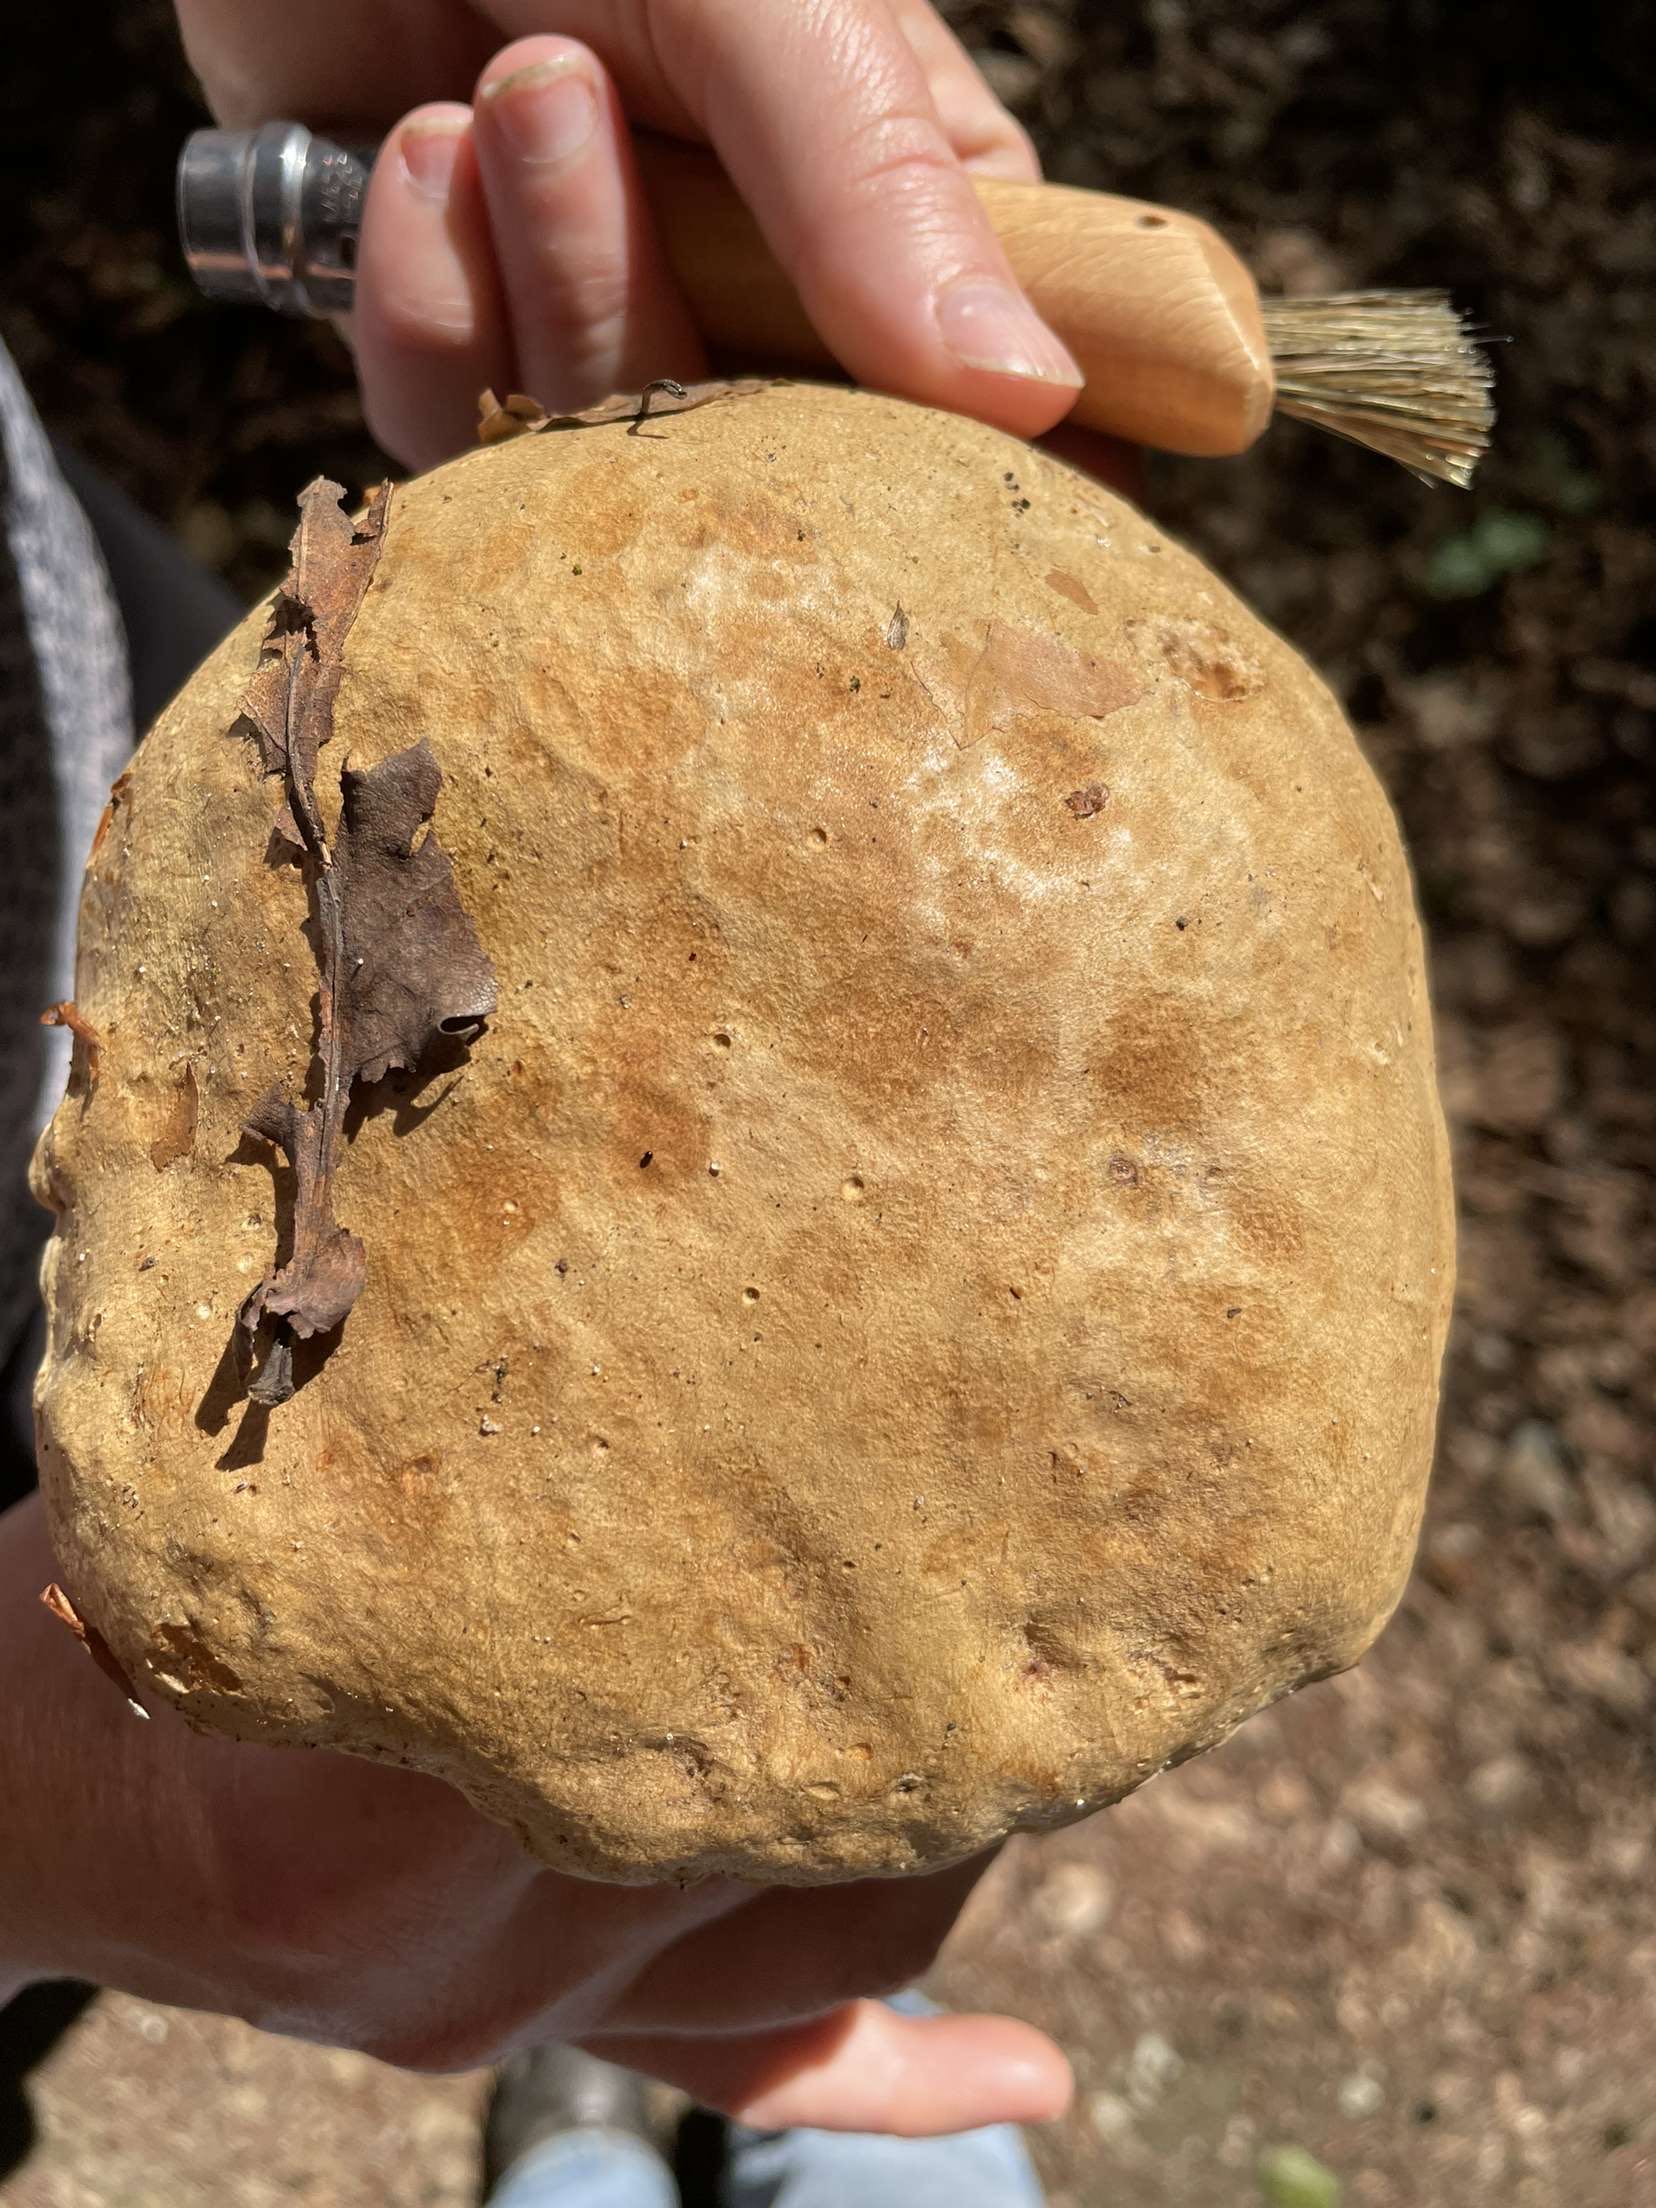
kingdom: Fungi
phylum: Basidiomycota
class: Agaricomycetes
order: Boletales
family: Boletaceae
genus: Butyriboletus
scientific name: Butyriboletus appendiculatus
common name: tenstokket rørhat
